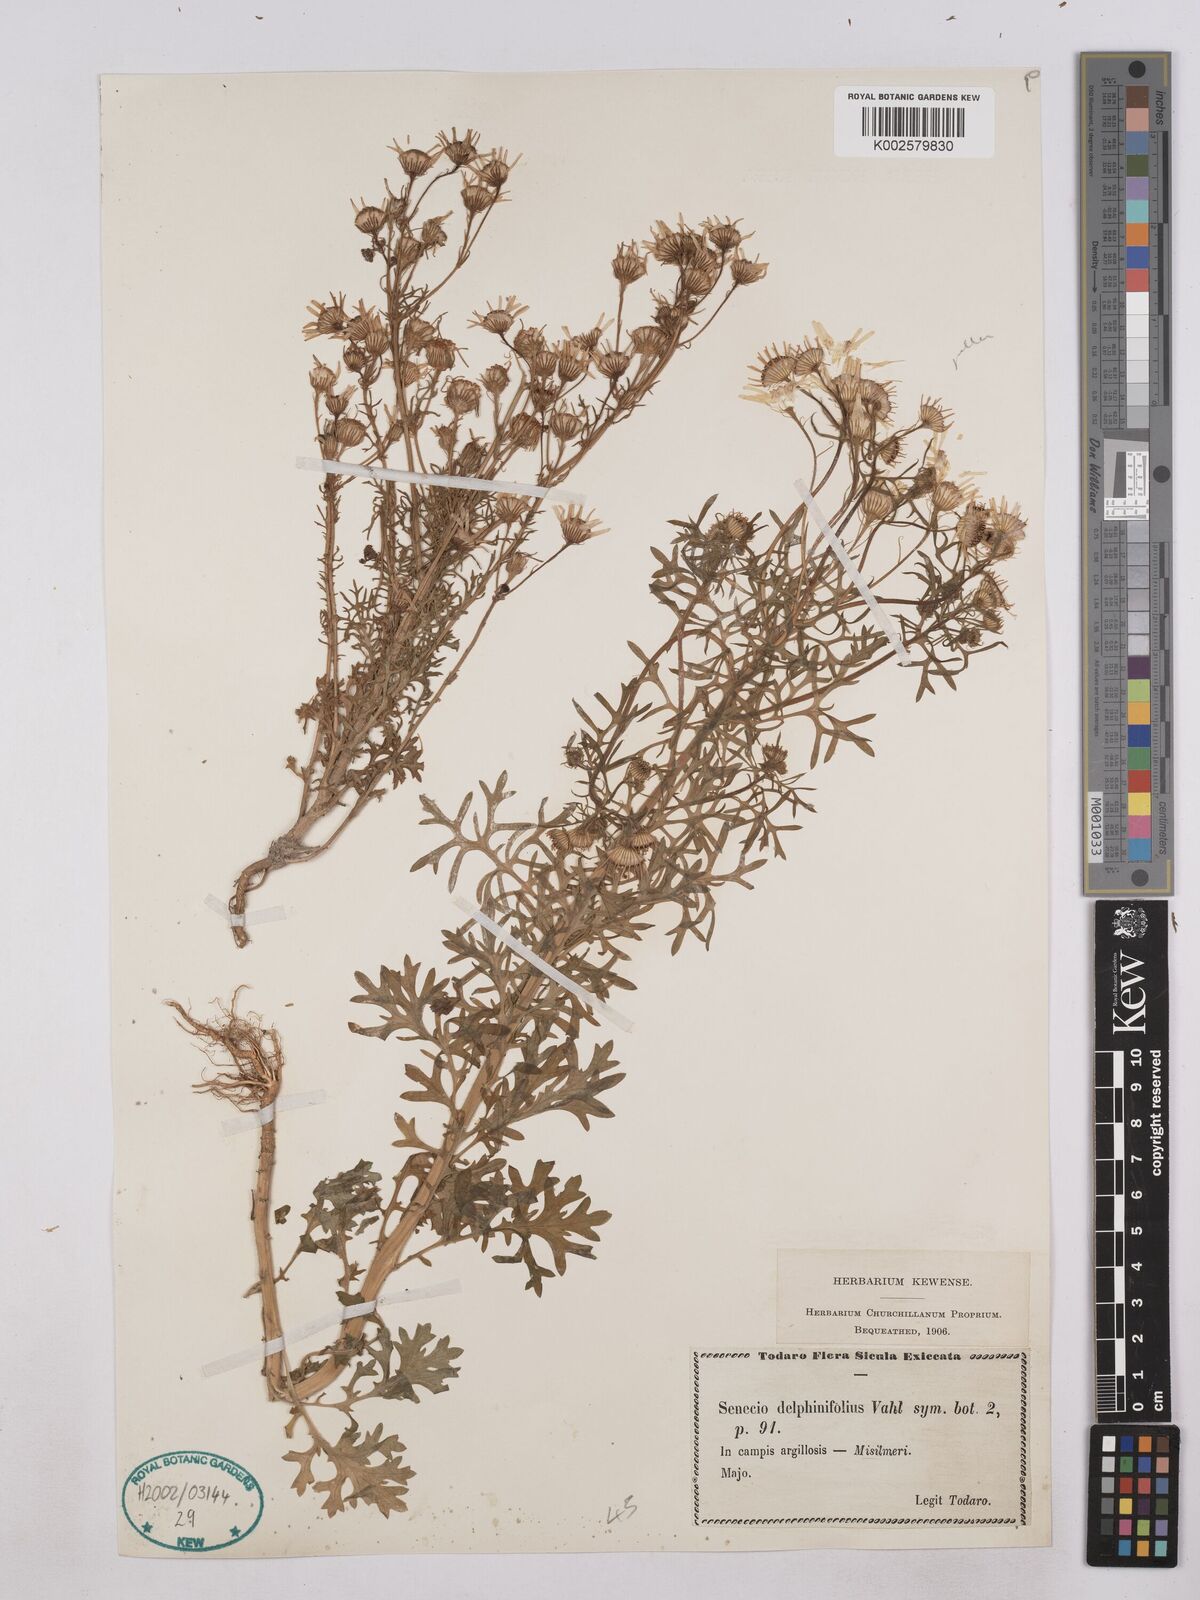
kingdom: Plantae
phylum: Tracheophyta
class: Magnoliopsida
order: Asterales
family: Asteraceae
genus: Jacobaea
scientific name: Jacobaea erucifolia
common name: Hoary ragwort
